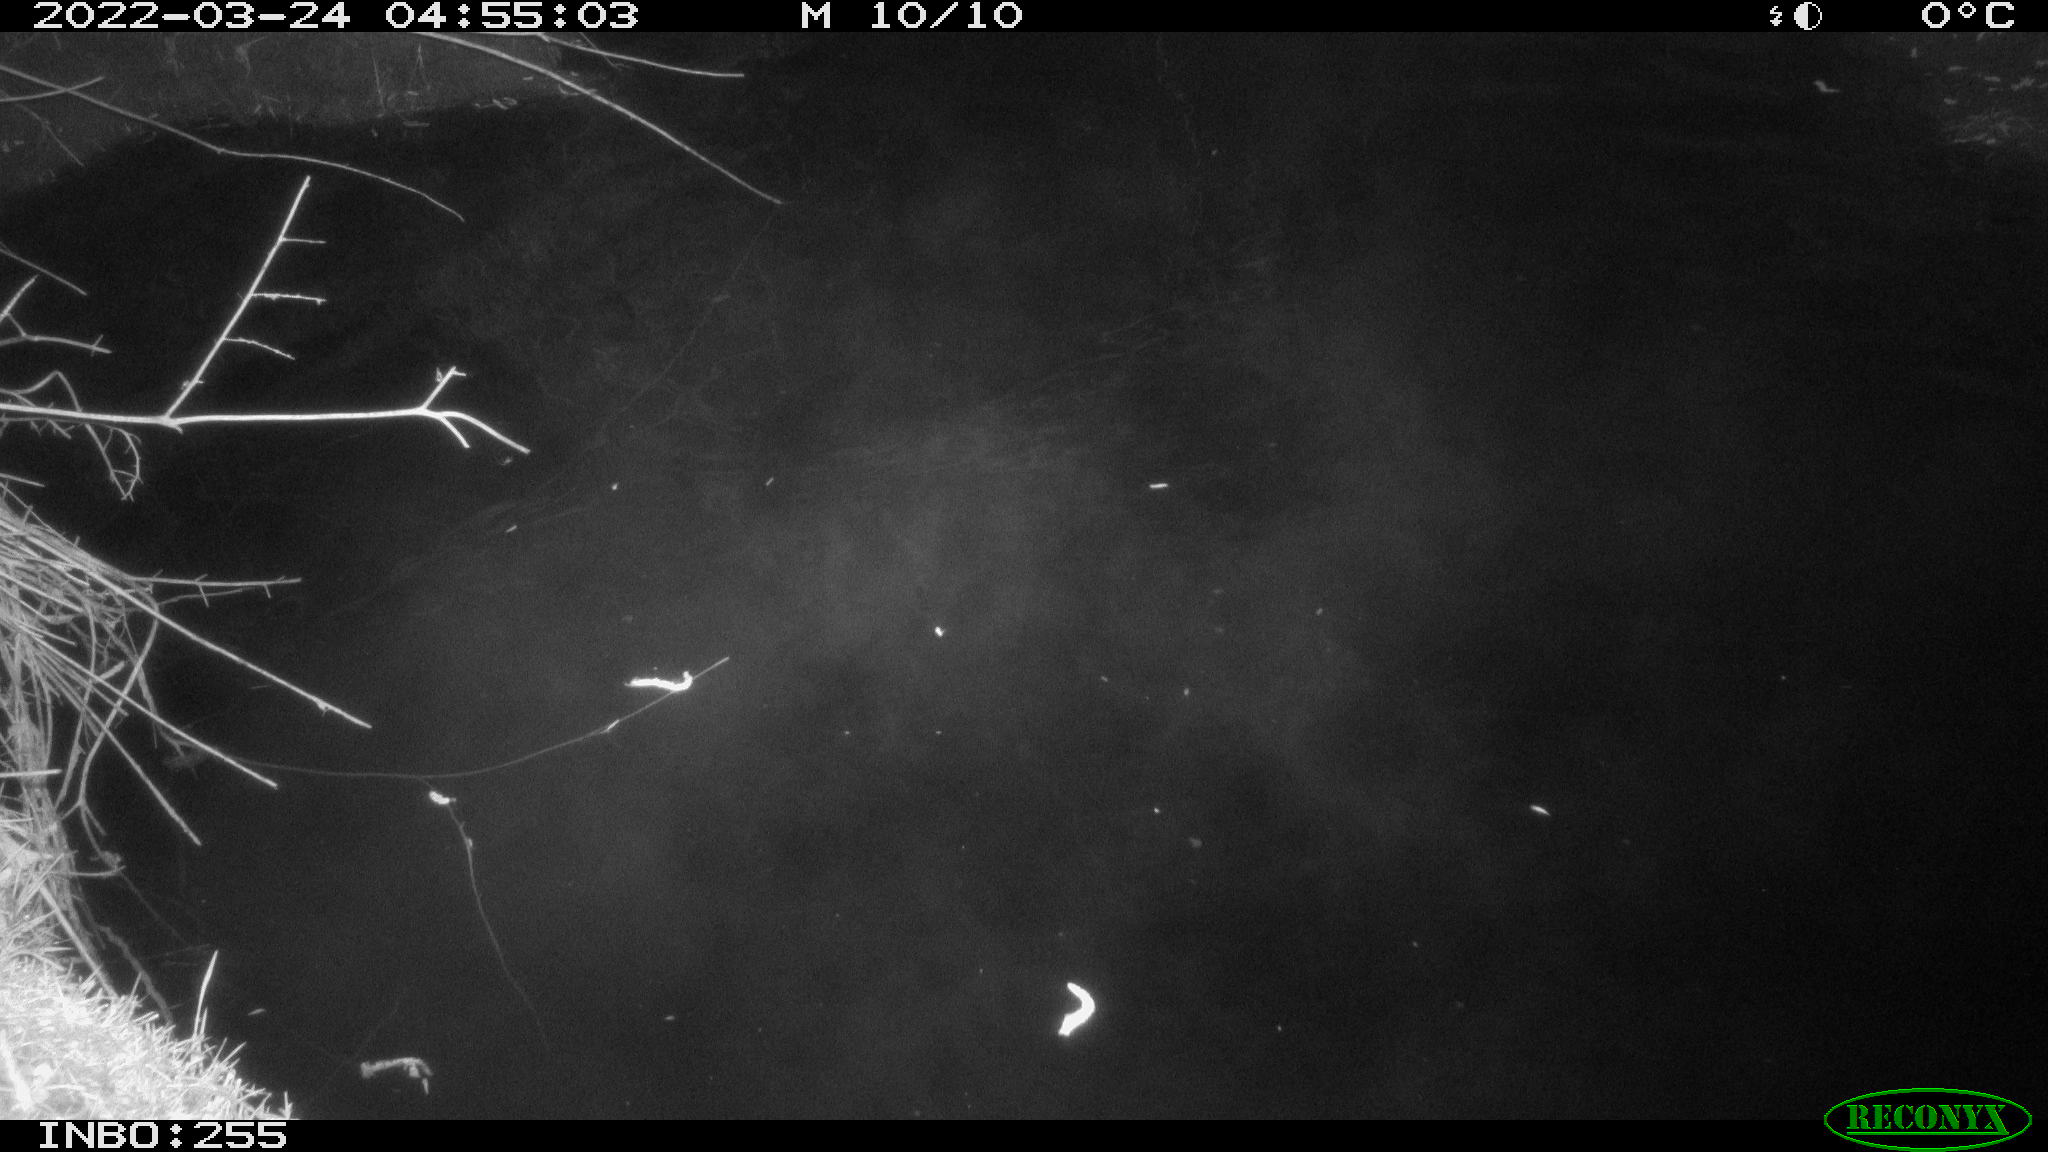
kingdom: Animalia
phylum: Chordata
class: Aves
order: Anseriformes
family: Anatidae
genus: Anas
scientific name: Anas platyrhynchos
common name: Mallard
